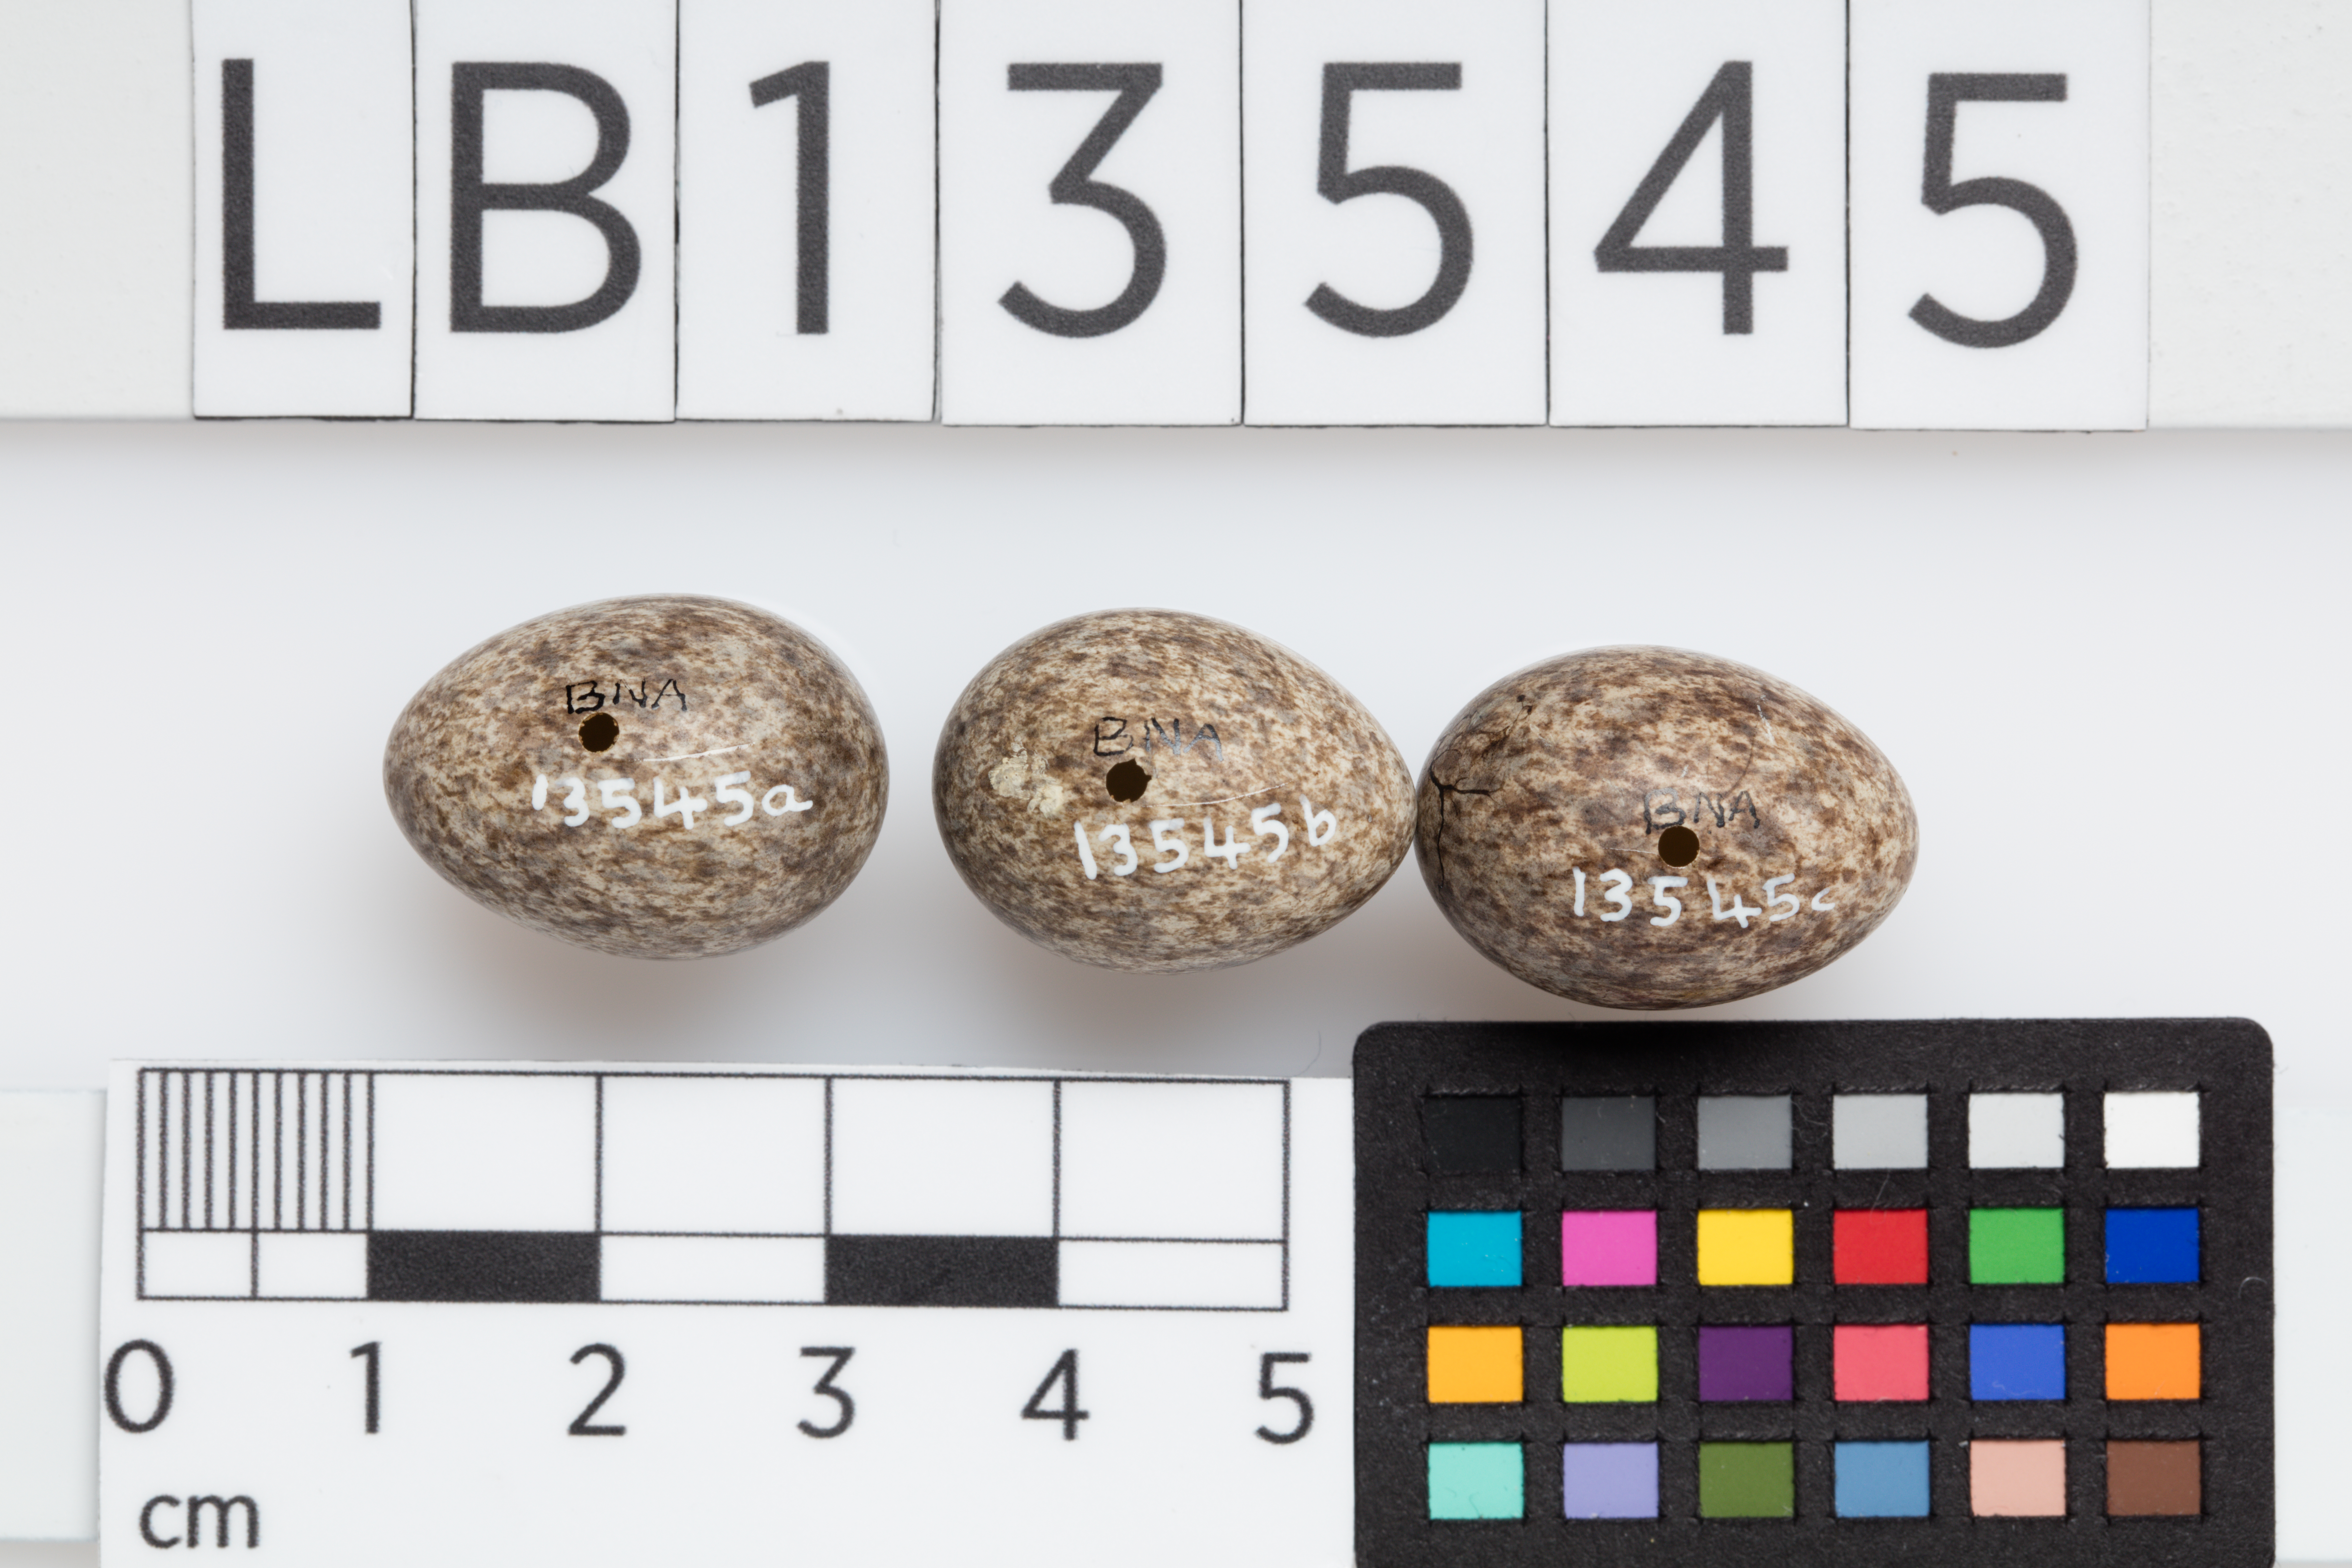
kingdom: Animalia
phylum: Chordata
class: Aves
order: Passeriformes
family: Motacillidae
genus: Anthus
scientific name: Anthus novaeseelandiae
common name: New zealand pipit
